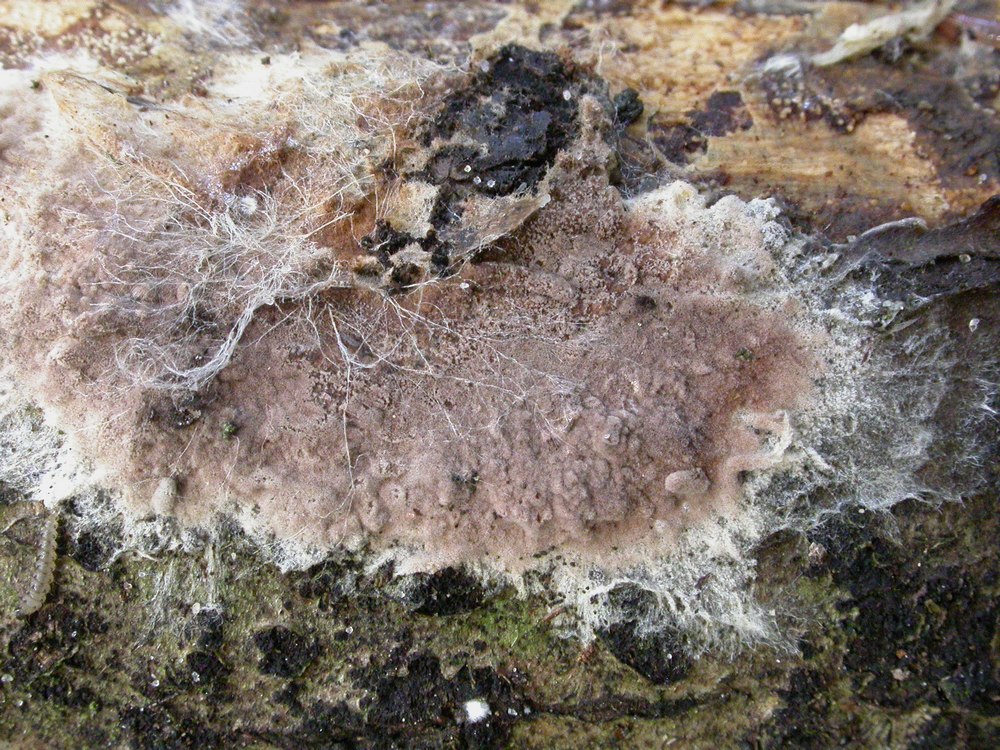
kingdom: Fungi
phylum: Basidiomycota
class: Agaricomycetes
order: Thelephorales
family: Thelephoraceae
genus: Tomentella
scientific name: Tomentella
